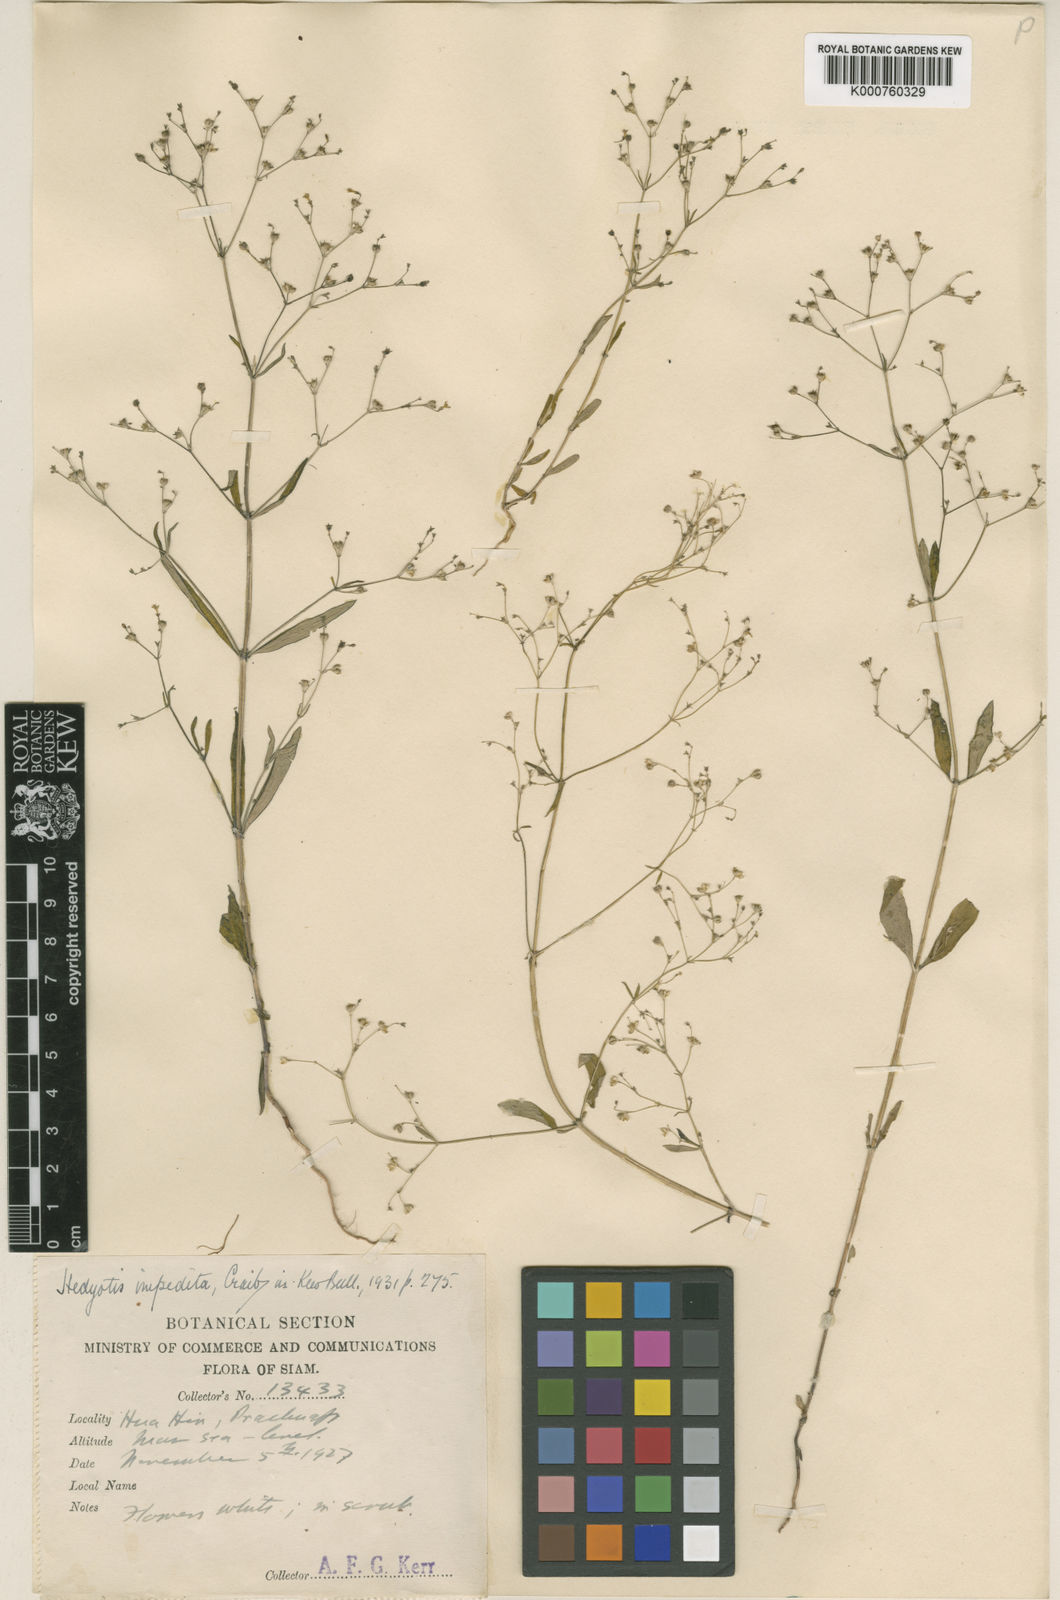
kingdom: Plantae
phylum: Tracheophyta
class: Magnoliopsida
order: Gentianales
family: Rubiaceae
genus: Hedyotis
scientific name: Hedyotis scoparia
